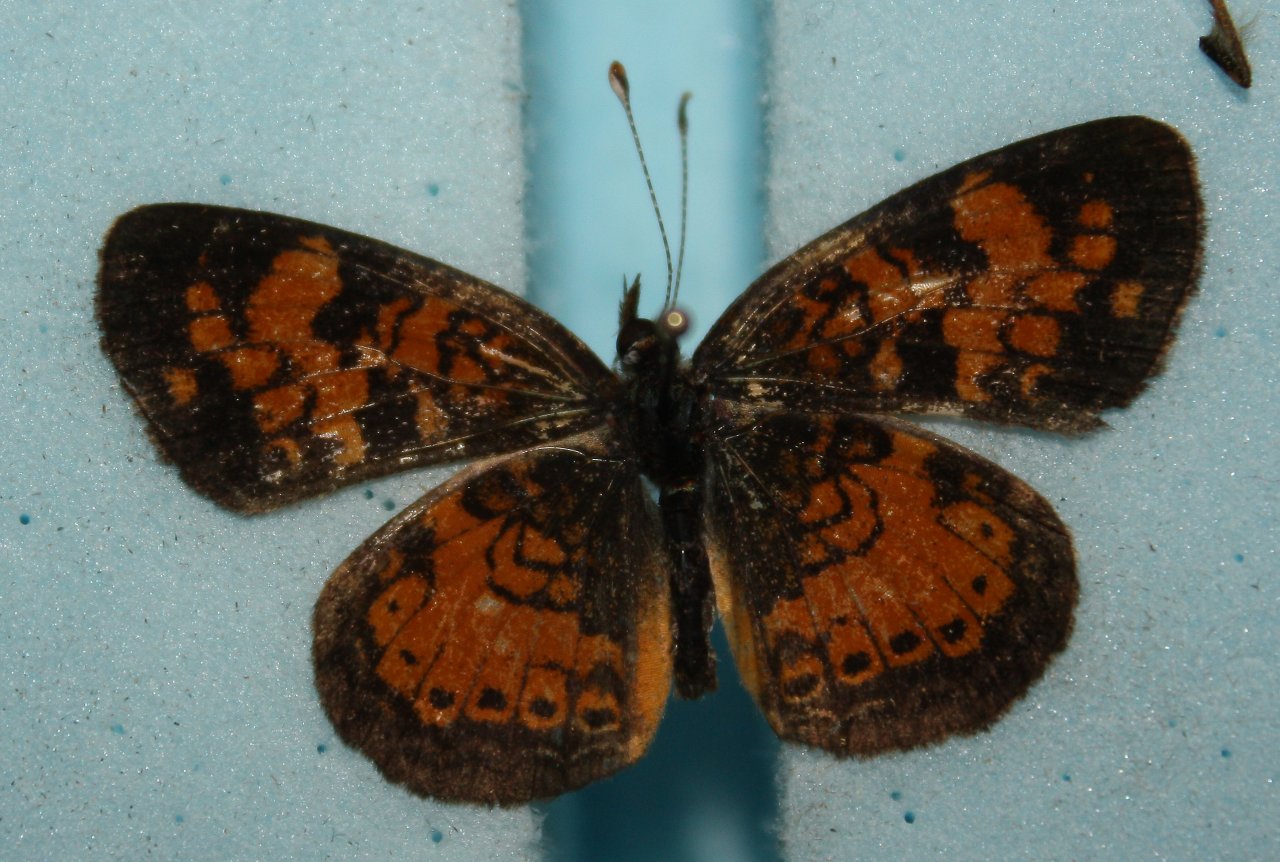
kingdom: Animalia
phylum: Arthropoda
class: Insecta
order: Lepidoptera
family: Nymphalidae
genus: Phyciodes
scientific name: Phyciodes tharos
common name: Northern Crescent
